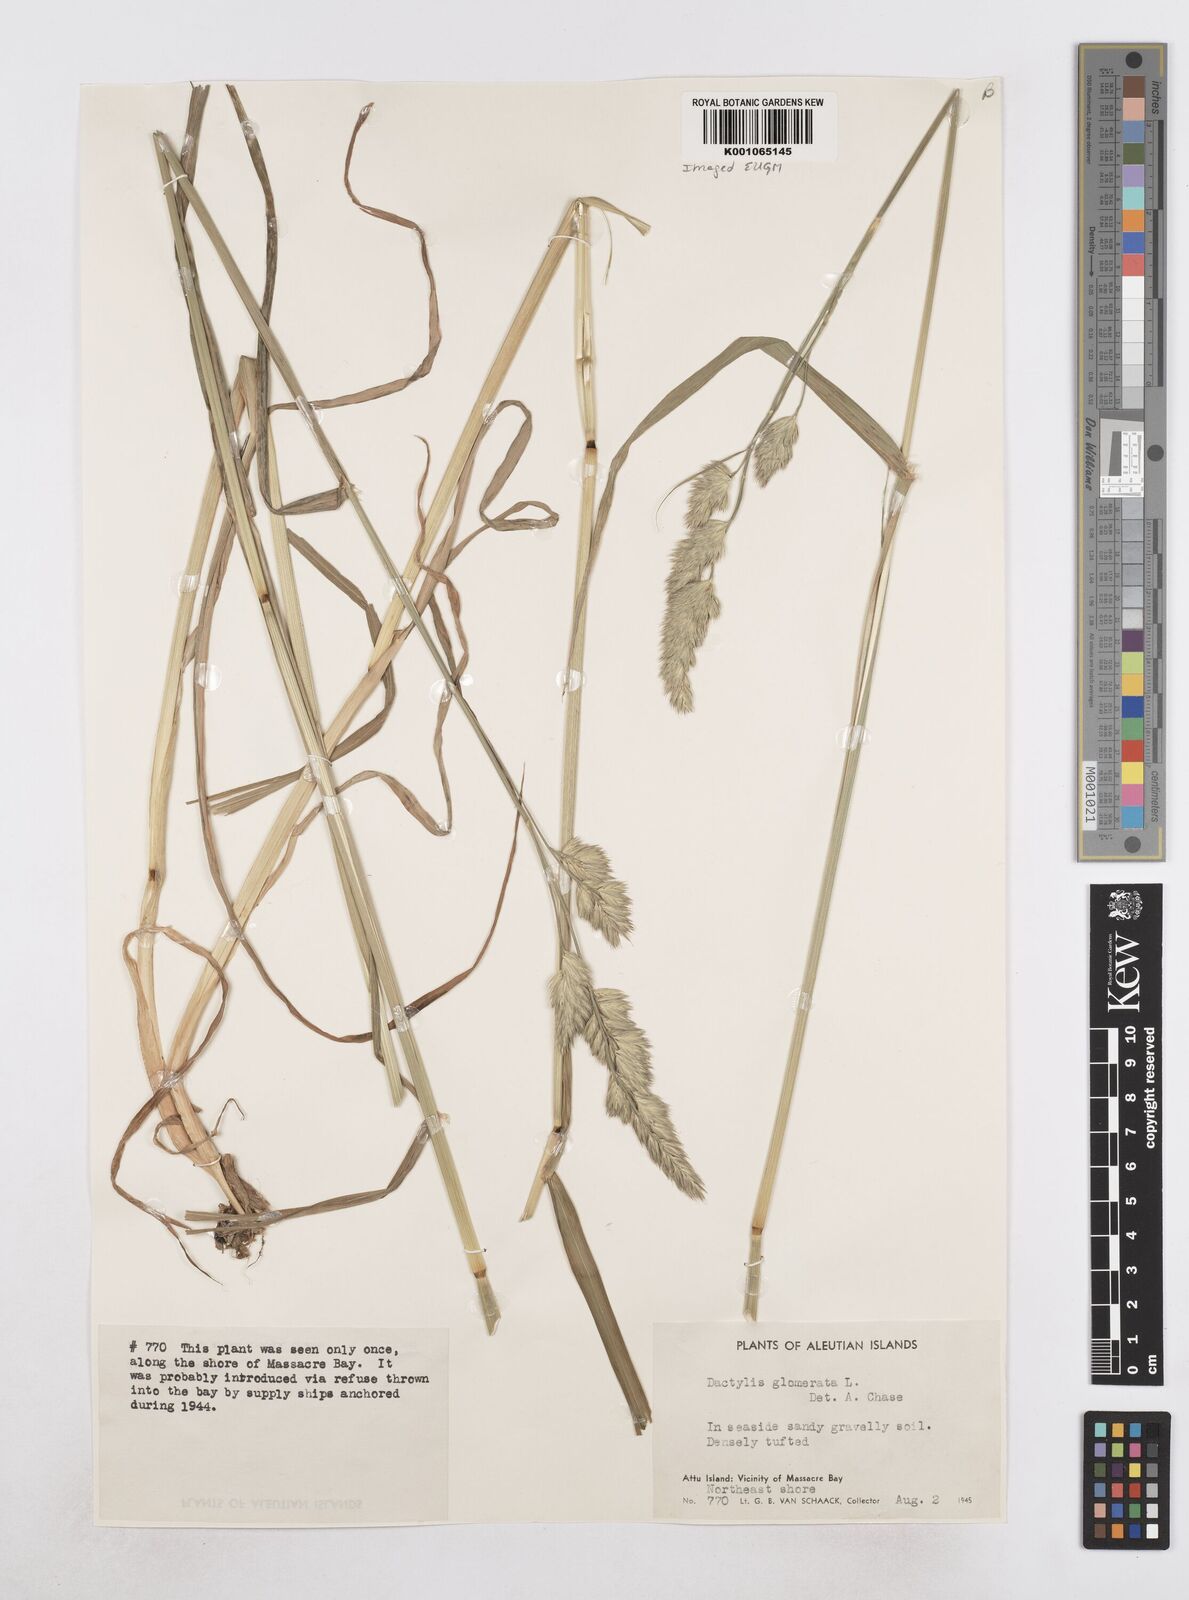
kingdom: Plantae
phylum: Tracheophyta
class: Liliopsida
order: Poales
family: Poaceae
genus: Dactylis
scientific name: Dactylis glomerata
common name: Orchardgrass
